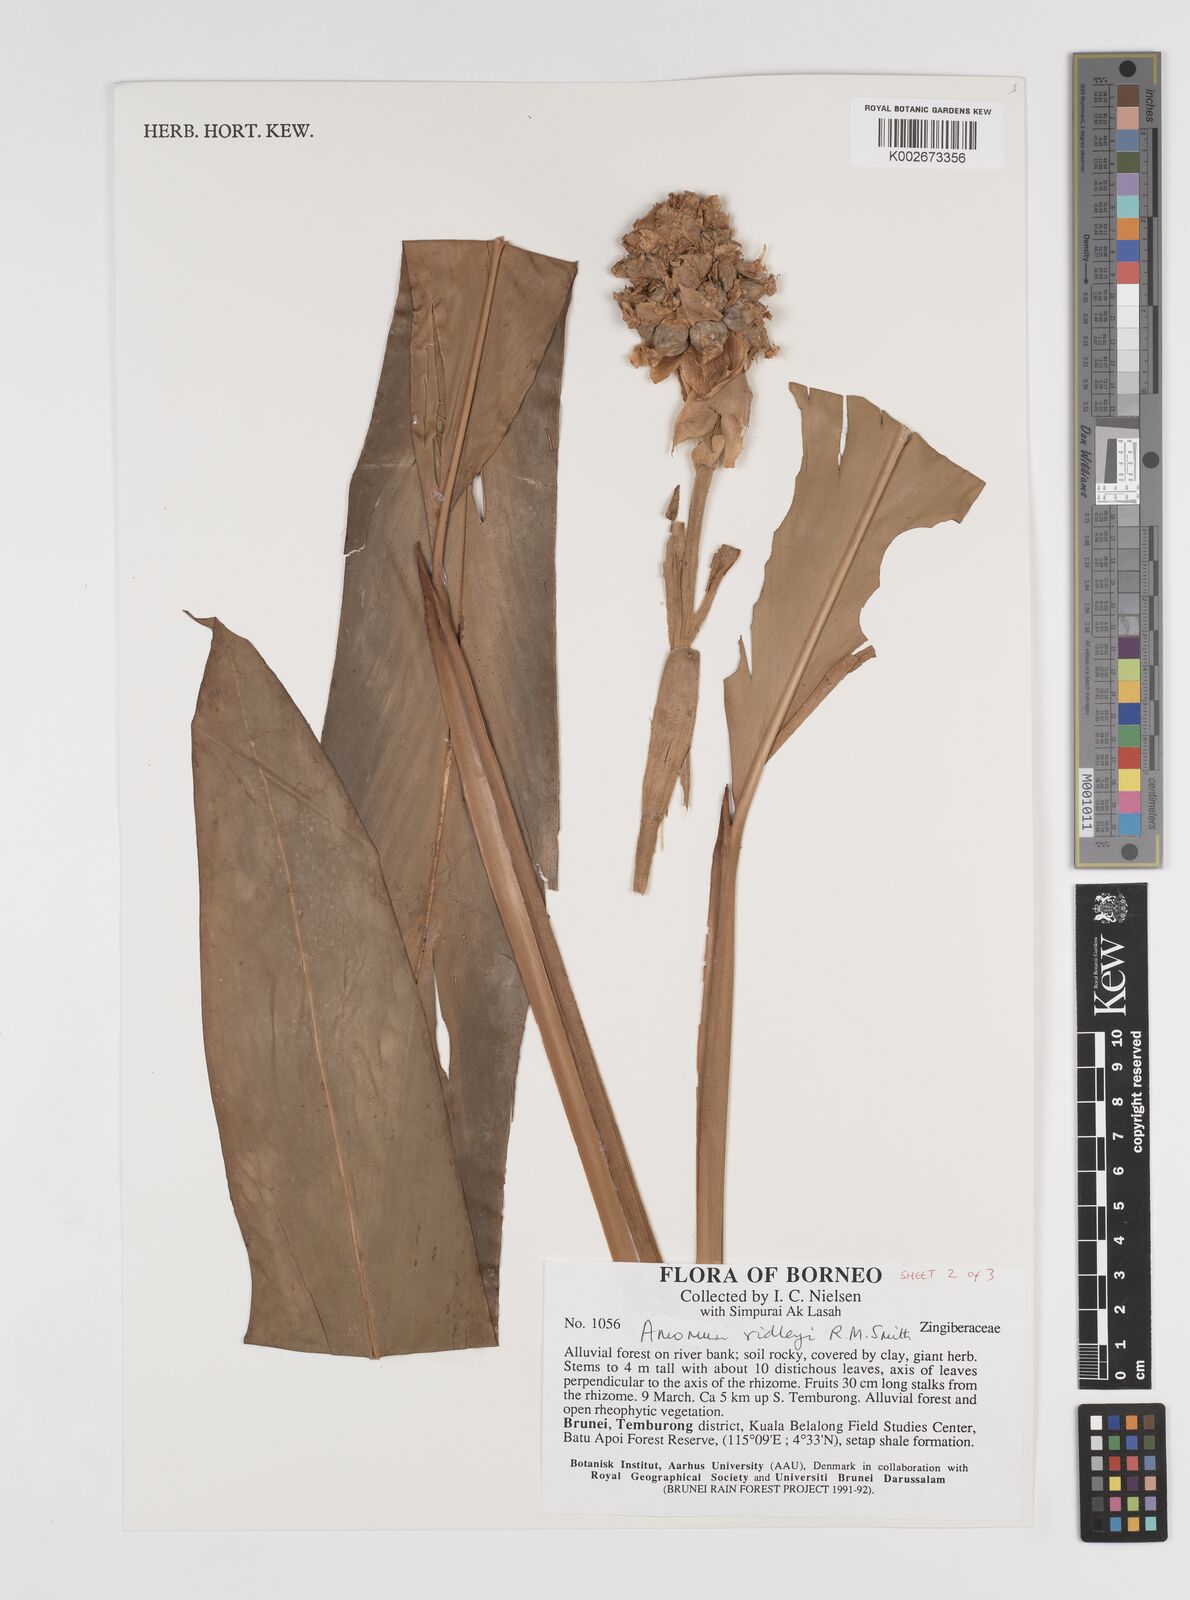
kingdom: Plantae
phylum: Tracheophyta
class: Liliopsida
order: Zingiberales
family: Zingiberaceae
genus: Amomum
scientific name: Amomum
